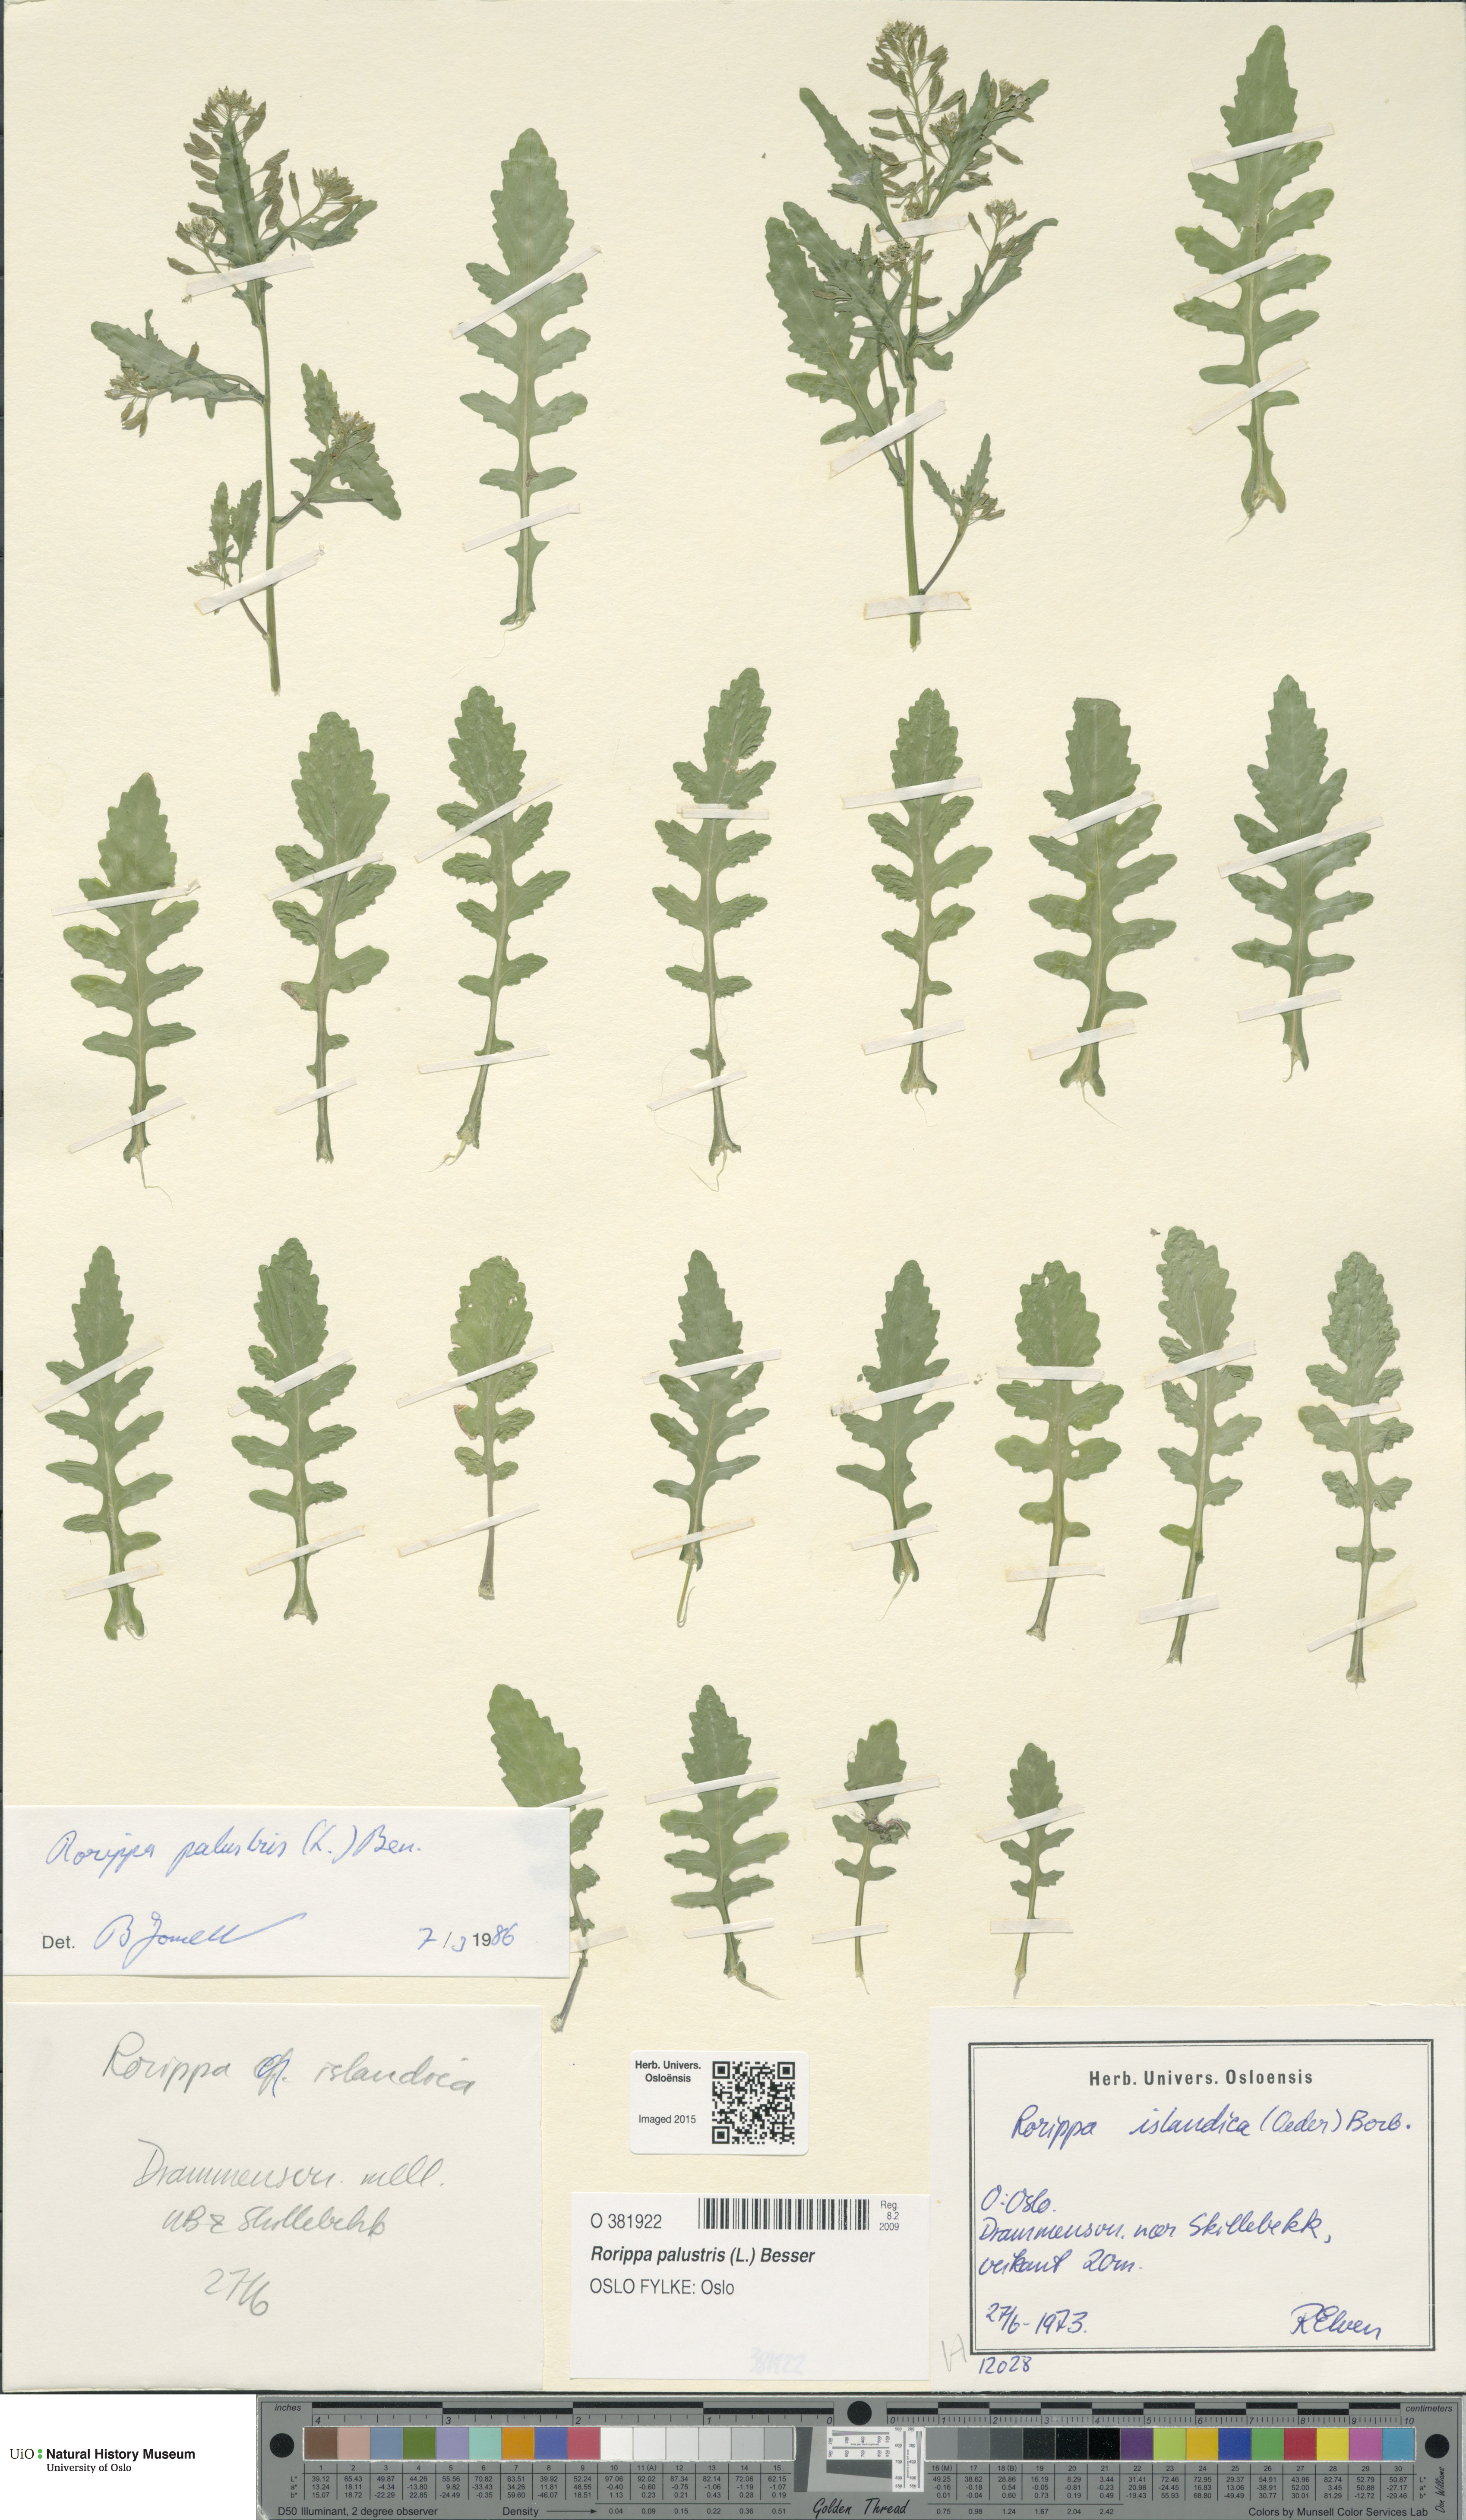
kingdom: Plantae
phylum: Tracheophyta
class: Magnoliopsida
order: Brassicales
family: Brassicaceae
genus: Rorippa
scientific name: Rorippa palustris
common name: Marsh yellow-cress
